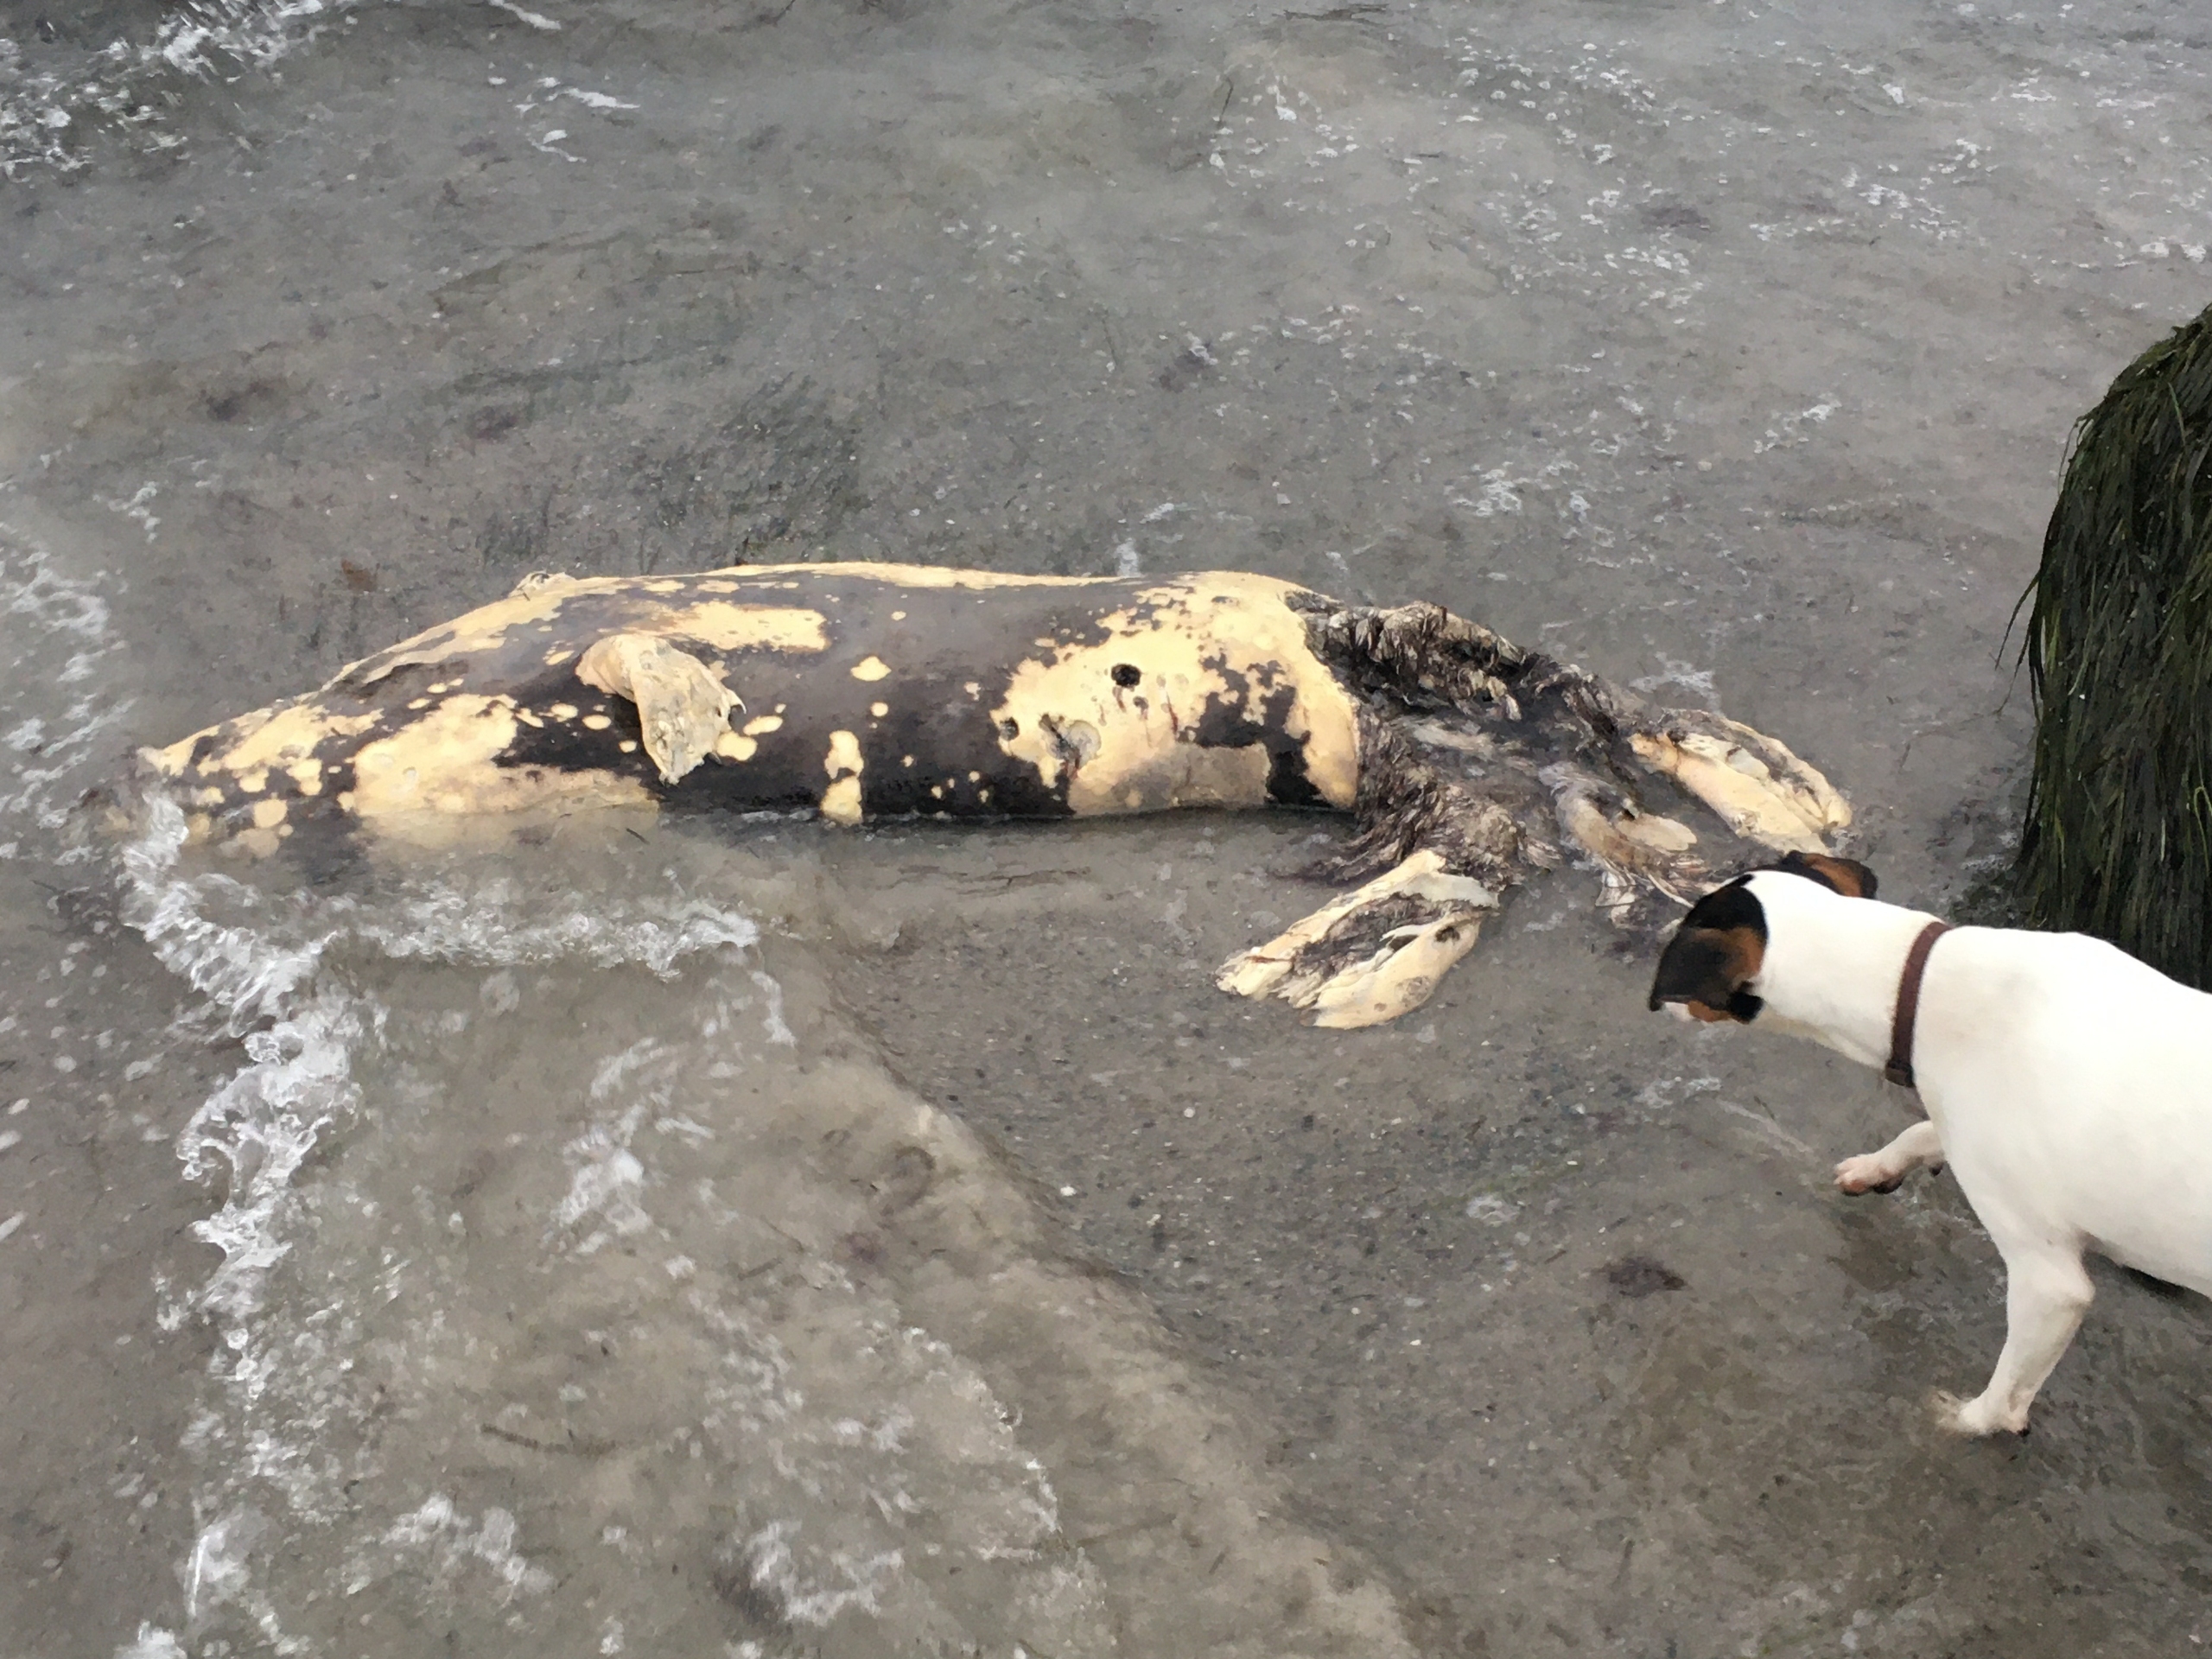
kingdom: Animalia
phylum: Chordata
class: Mammalia
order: Carnivora
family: Phocidae
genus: Halichoerus
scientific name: Halichoerus grypus
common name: Gråsæl
